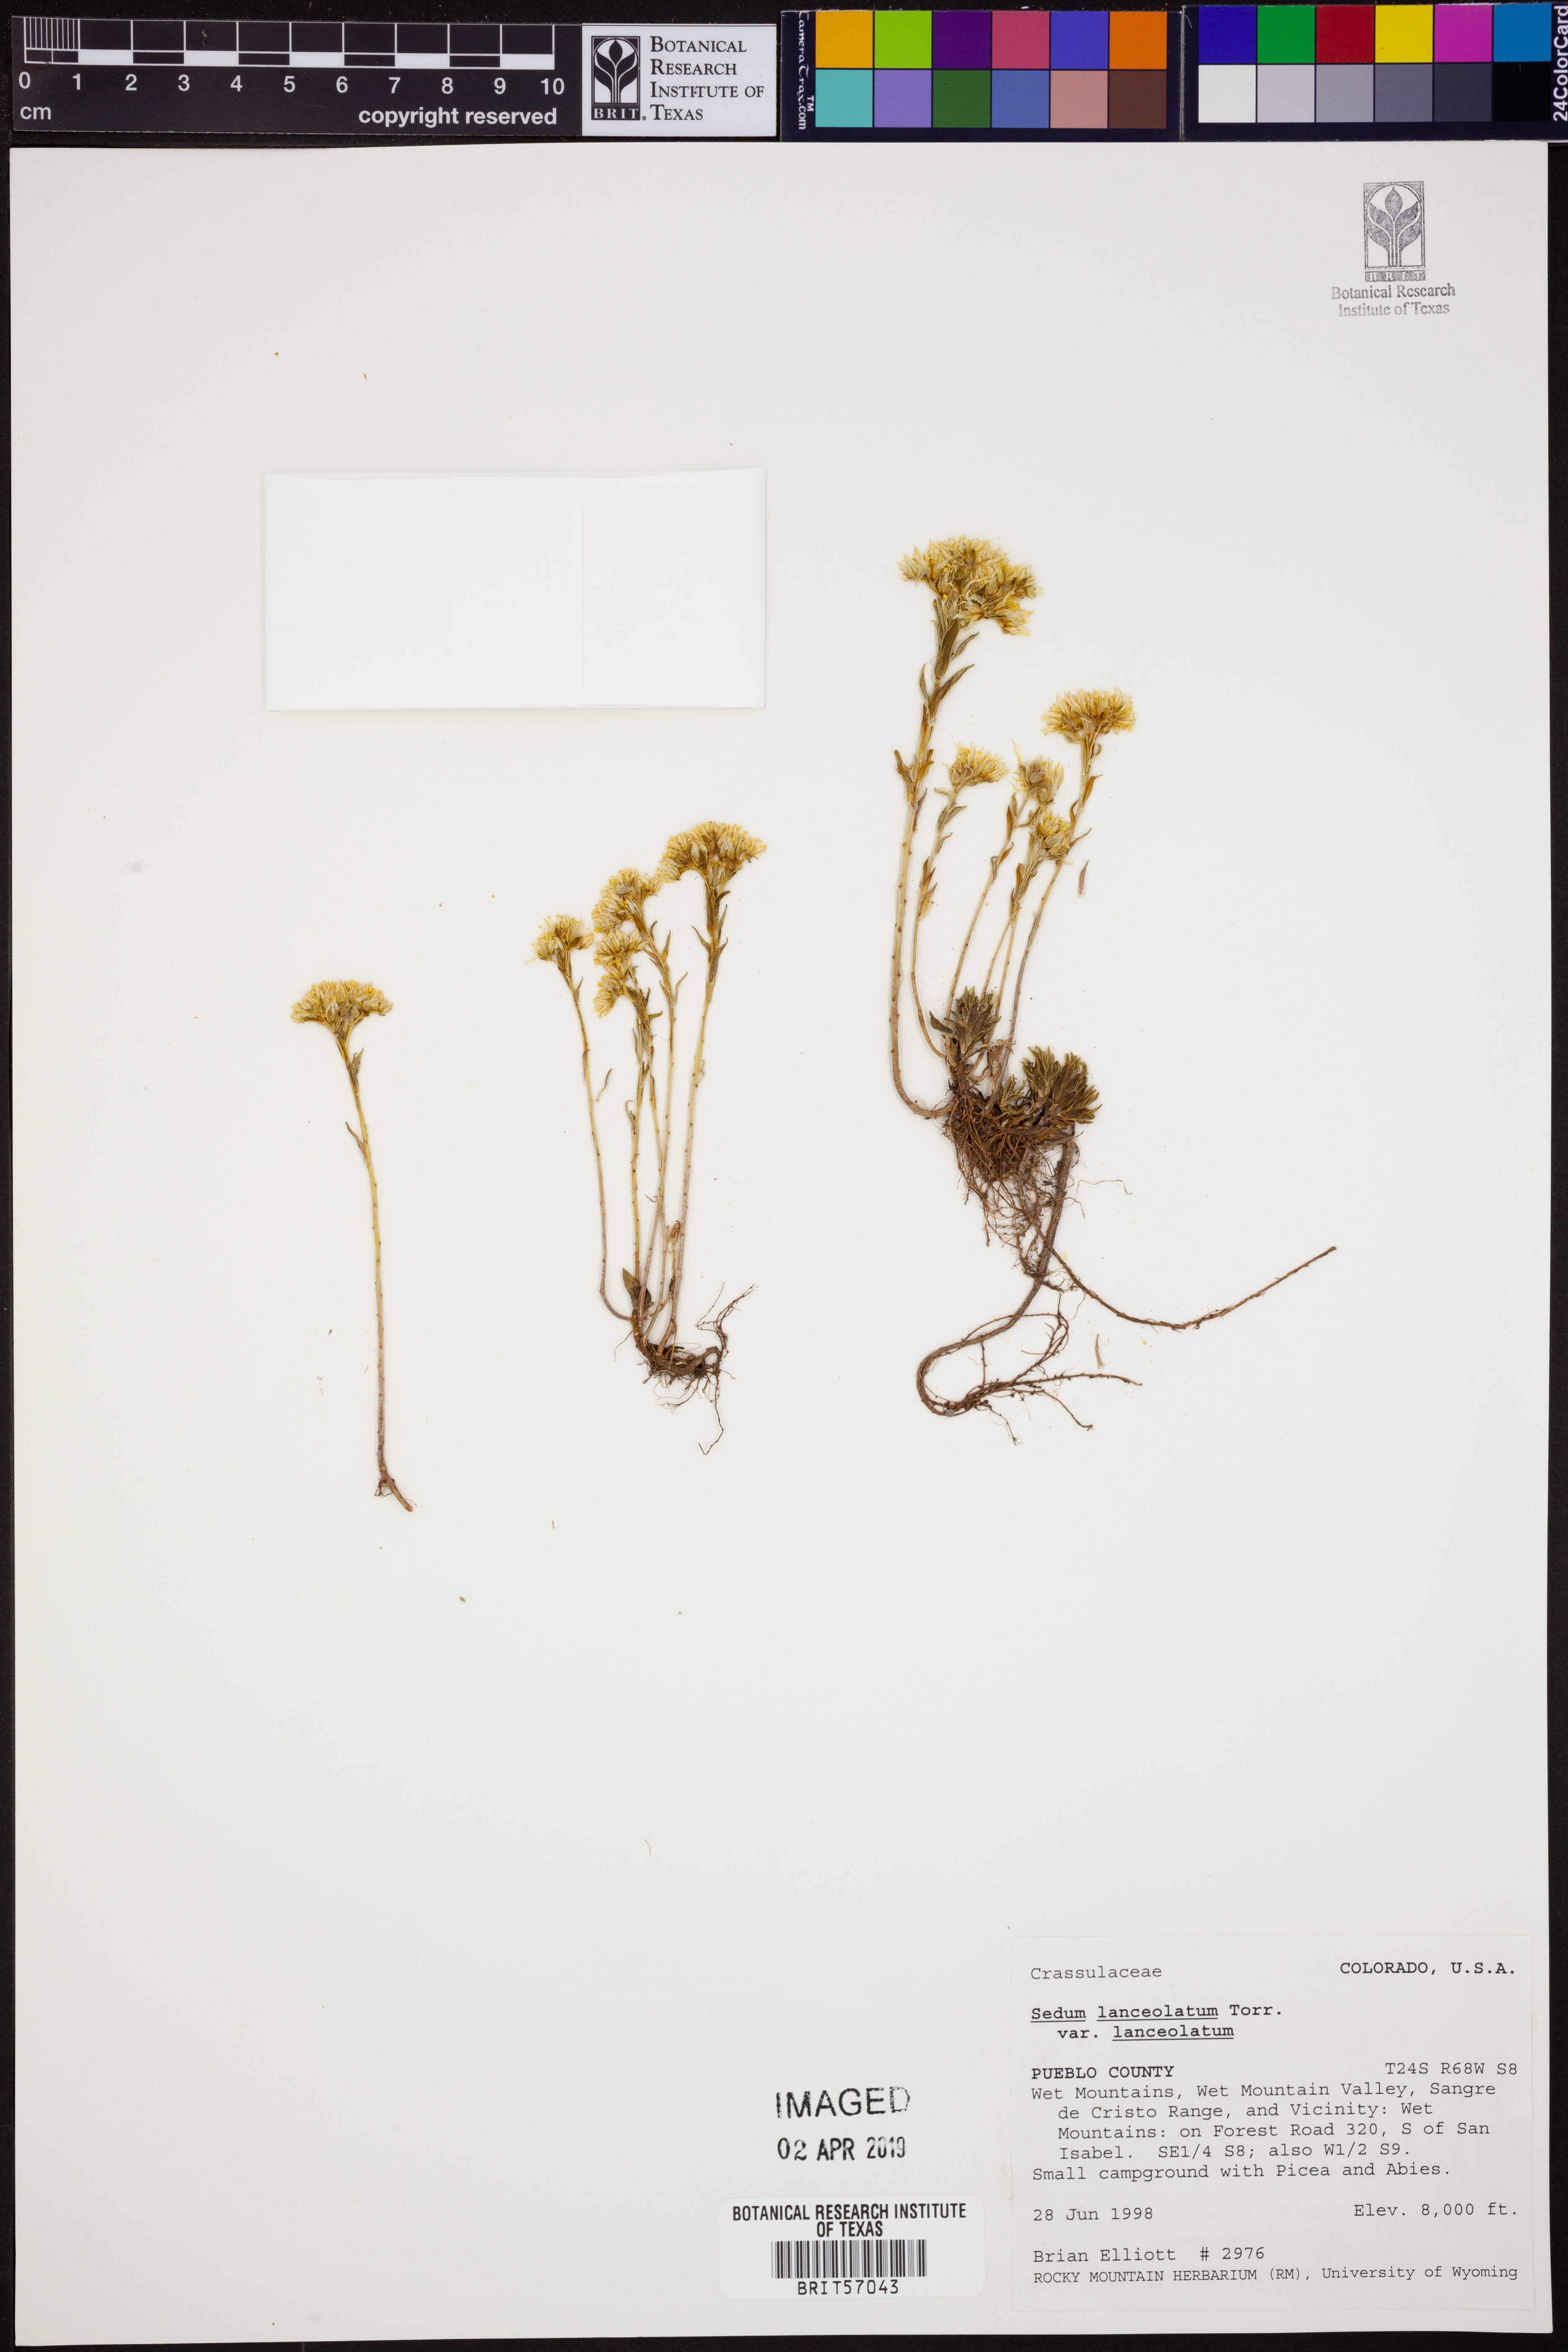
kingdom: Plantae
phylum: Tracheophyta
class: Magnoliopsida
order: Saxifragales
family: Crassulaceae
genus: Sedum
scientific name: Sedum lanceolatum
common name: Common stonecrop
